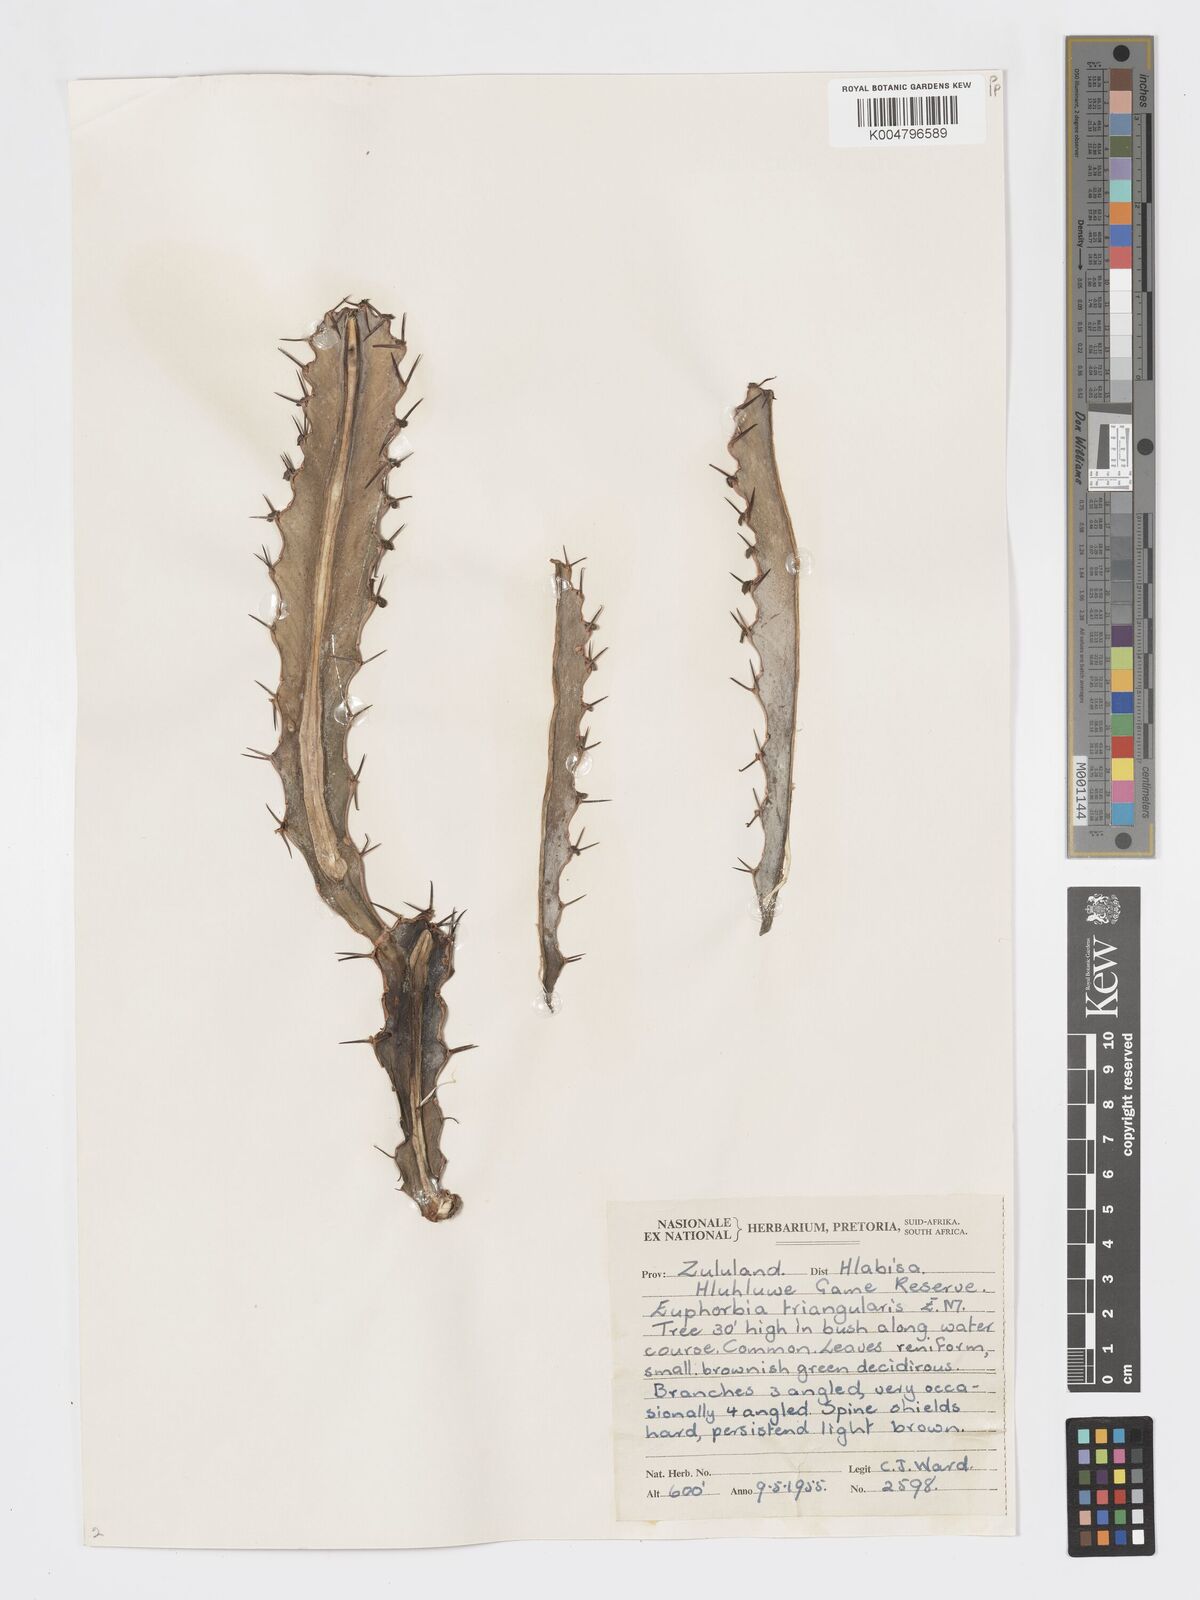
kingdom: Plantae
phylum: Tracheophyta
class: Magnoliopsida
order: Malpighiales
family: Euphorbiaceae
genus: Euphorbia
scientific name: Euphorbia triangularis
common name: Chandelier tree
